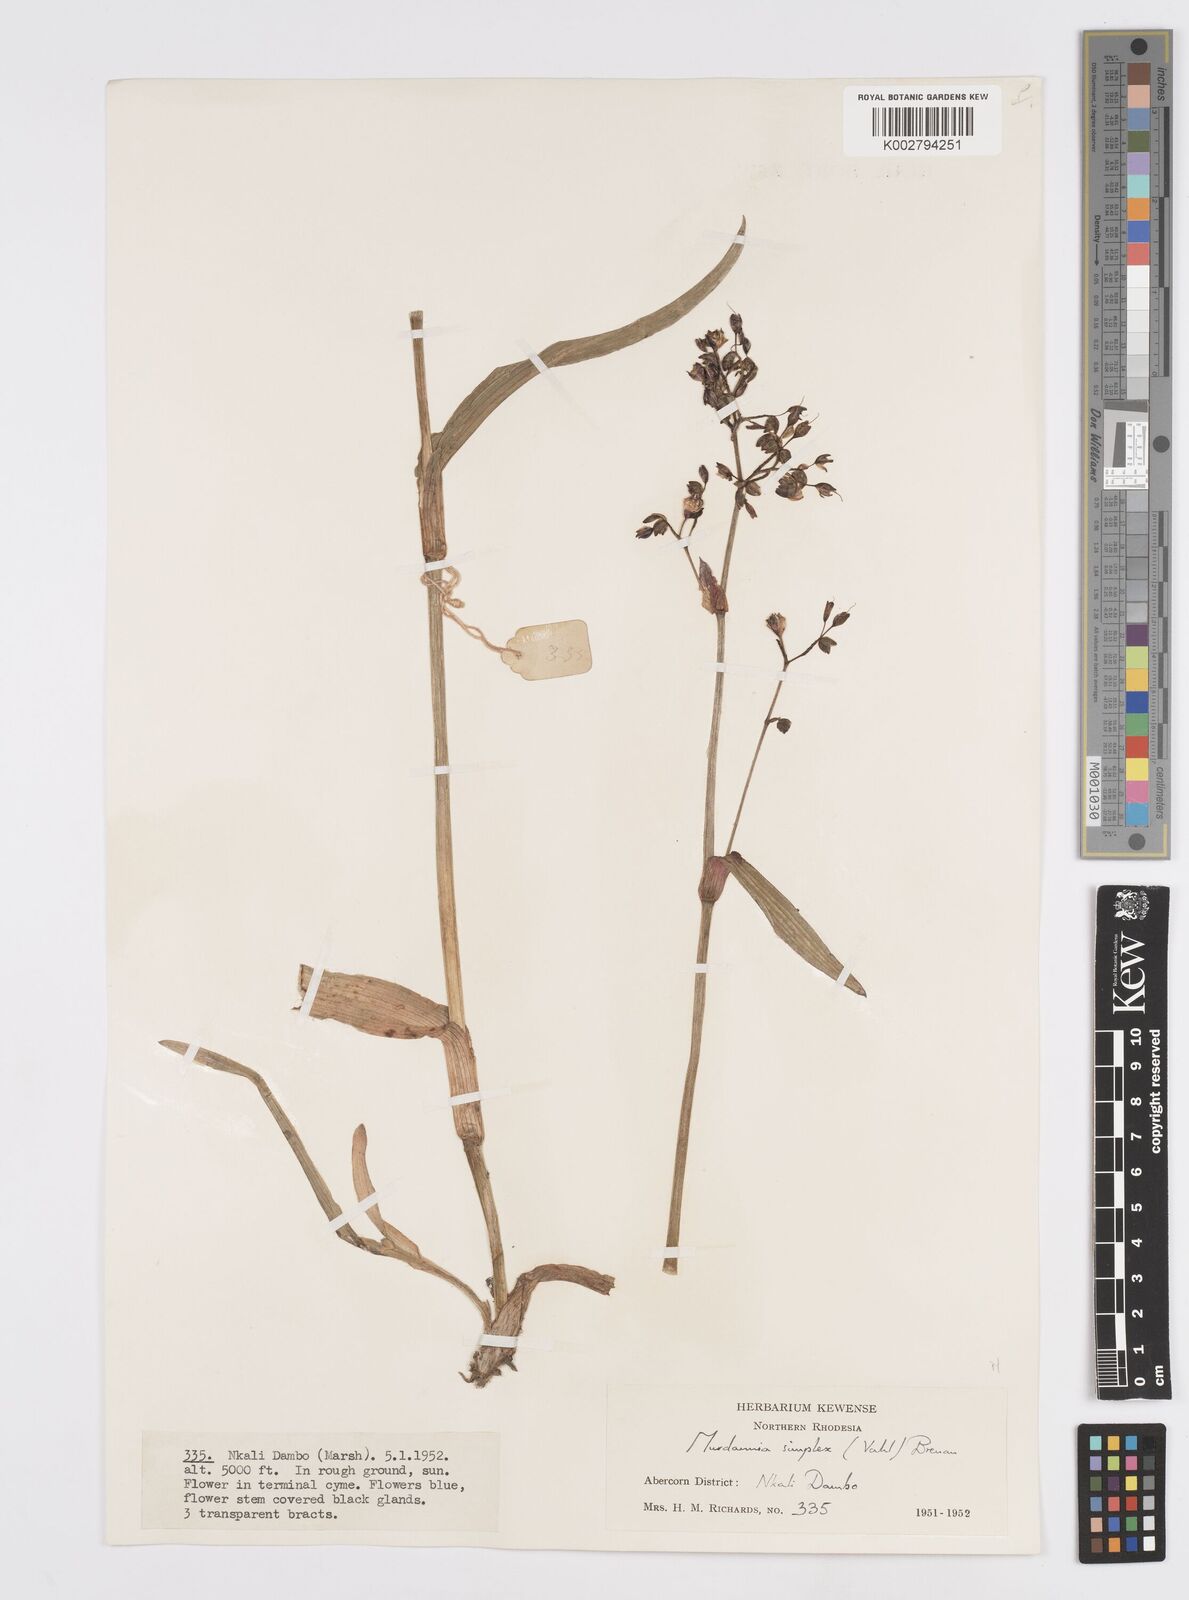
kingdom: Plantae
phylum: Tracheophyta
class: Liliopsida
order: Commelinales
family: Commelinaceae
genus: Murdannia
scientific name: Murdannia simplex
